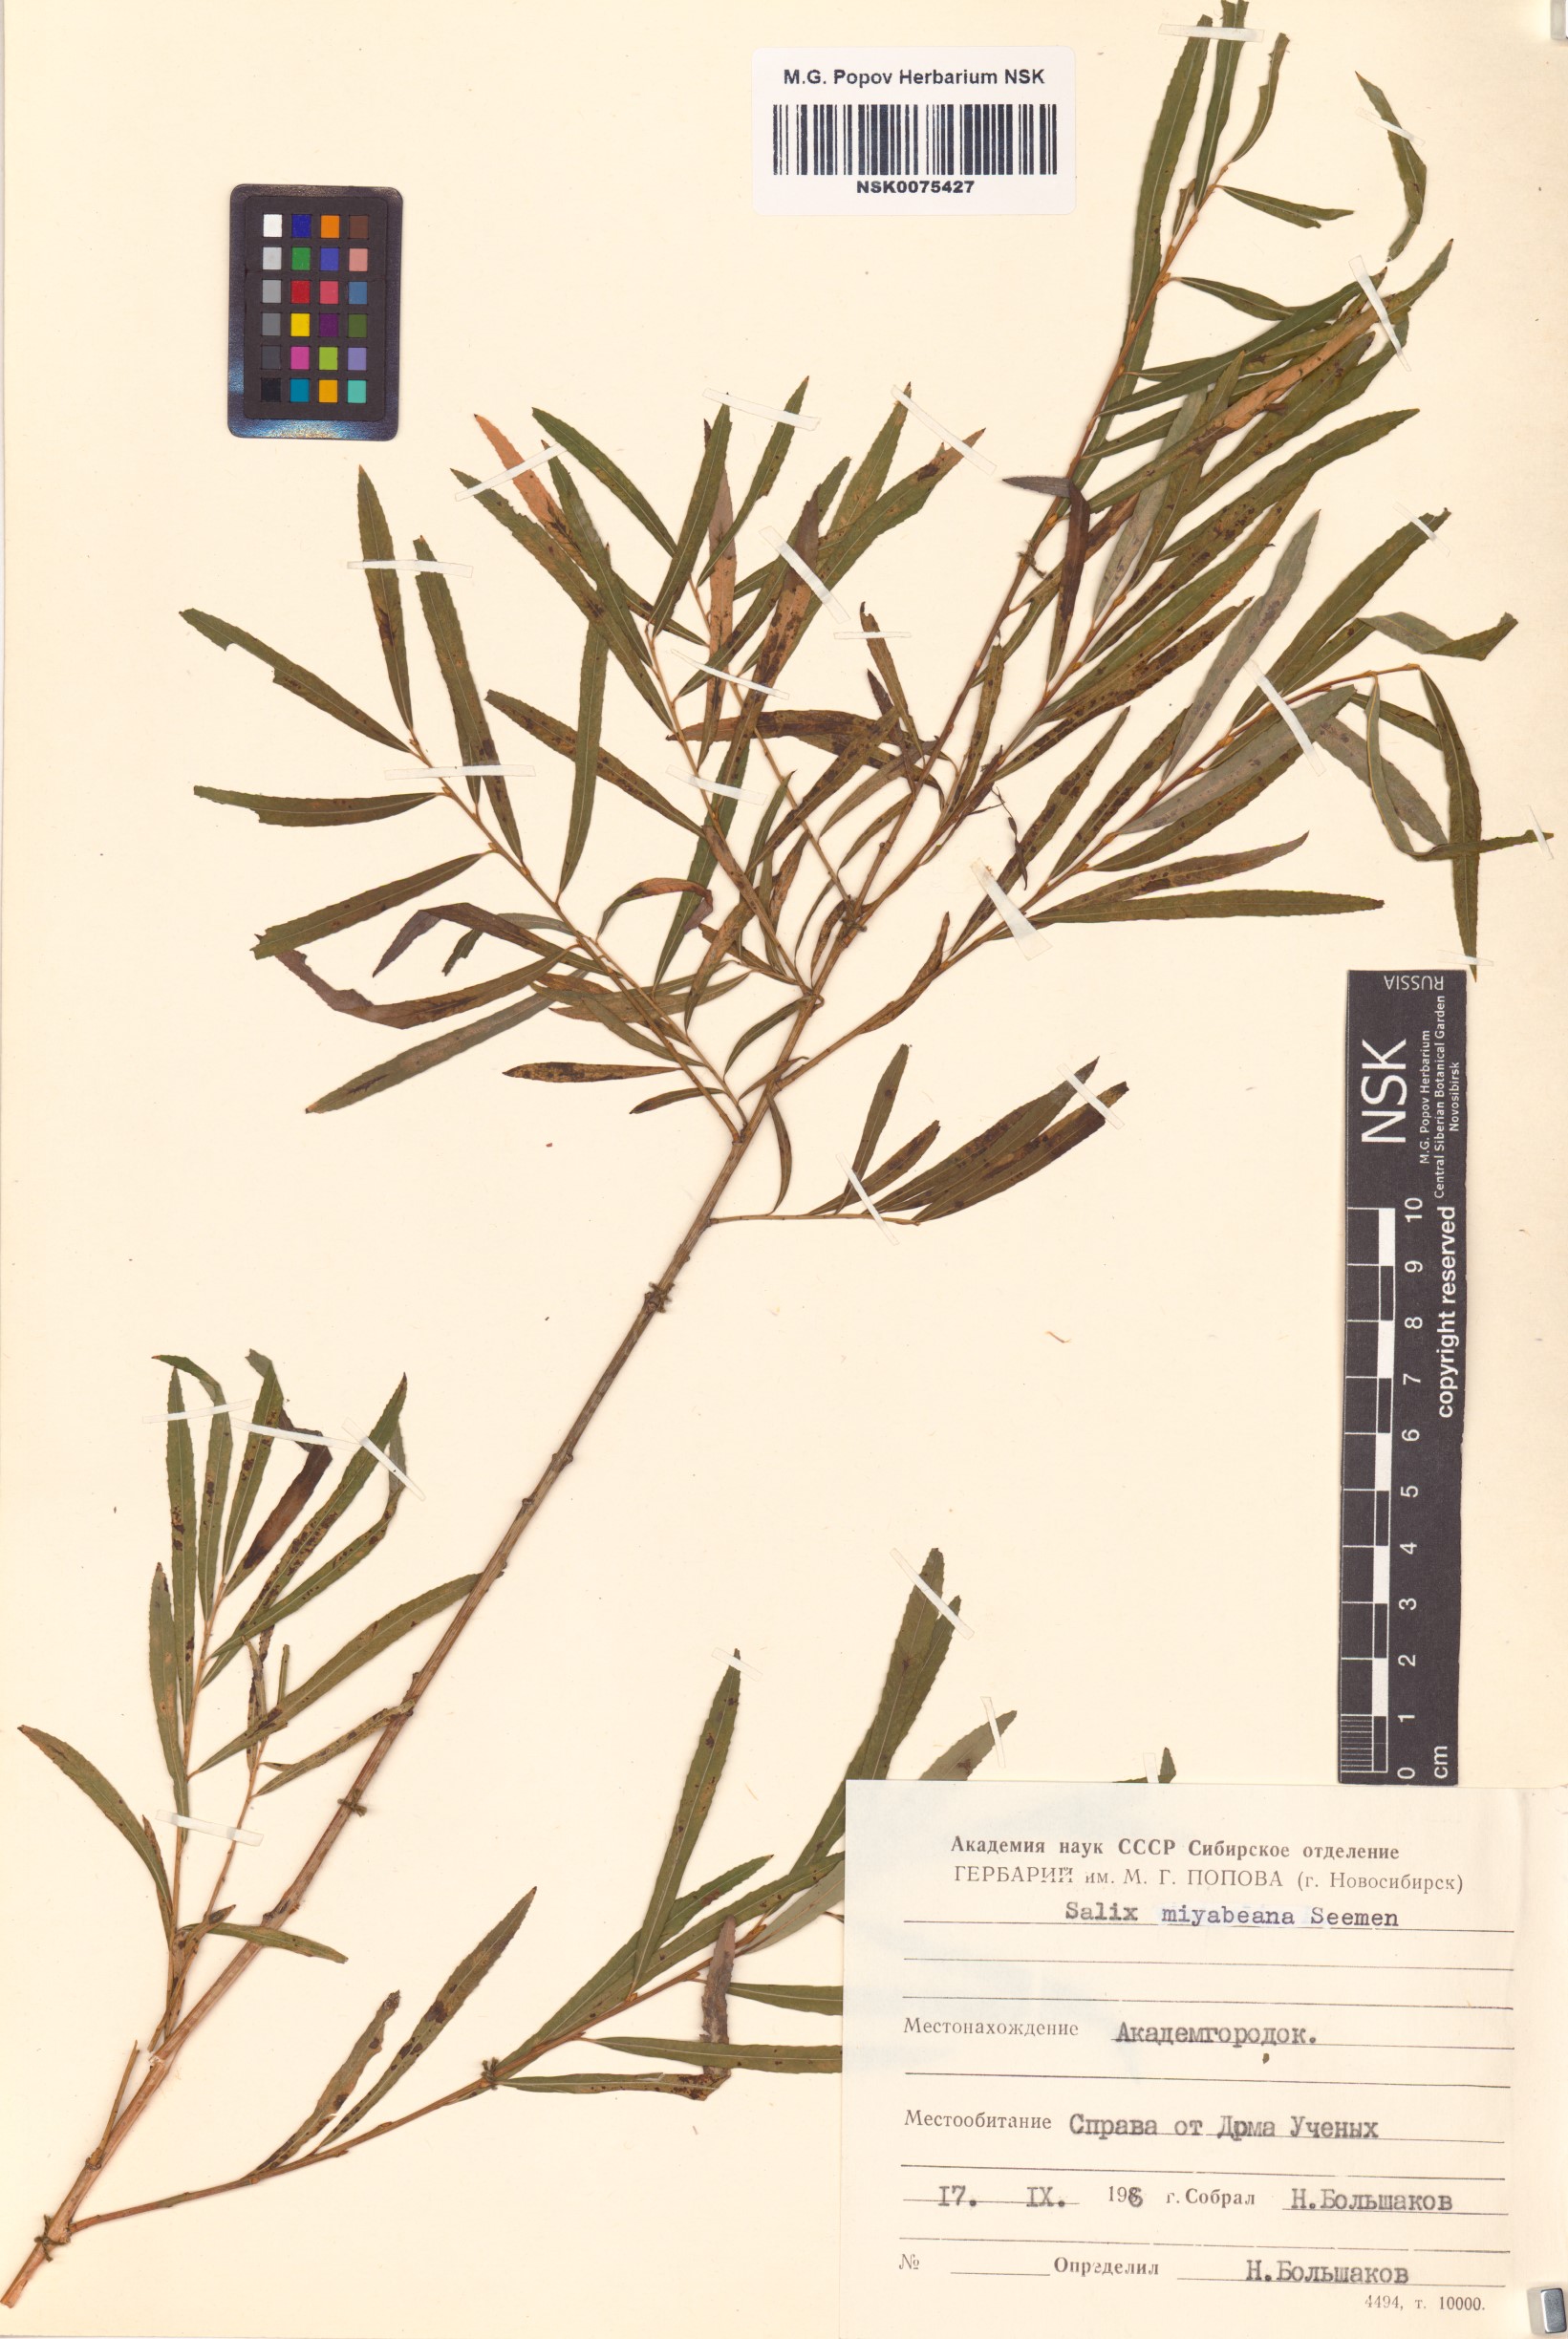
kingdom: Plantae
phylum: Tracheophyta
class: Magnoliopsida
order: Malpighiales
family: Salicaceae
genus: Salix
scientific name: Salix miyabeana
